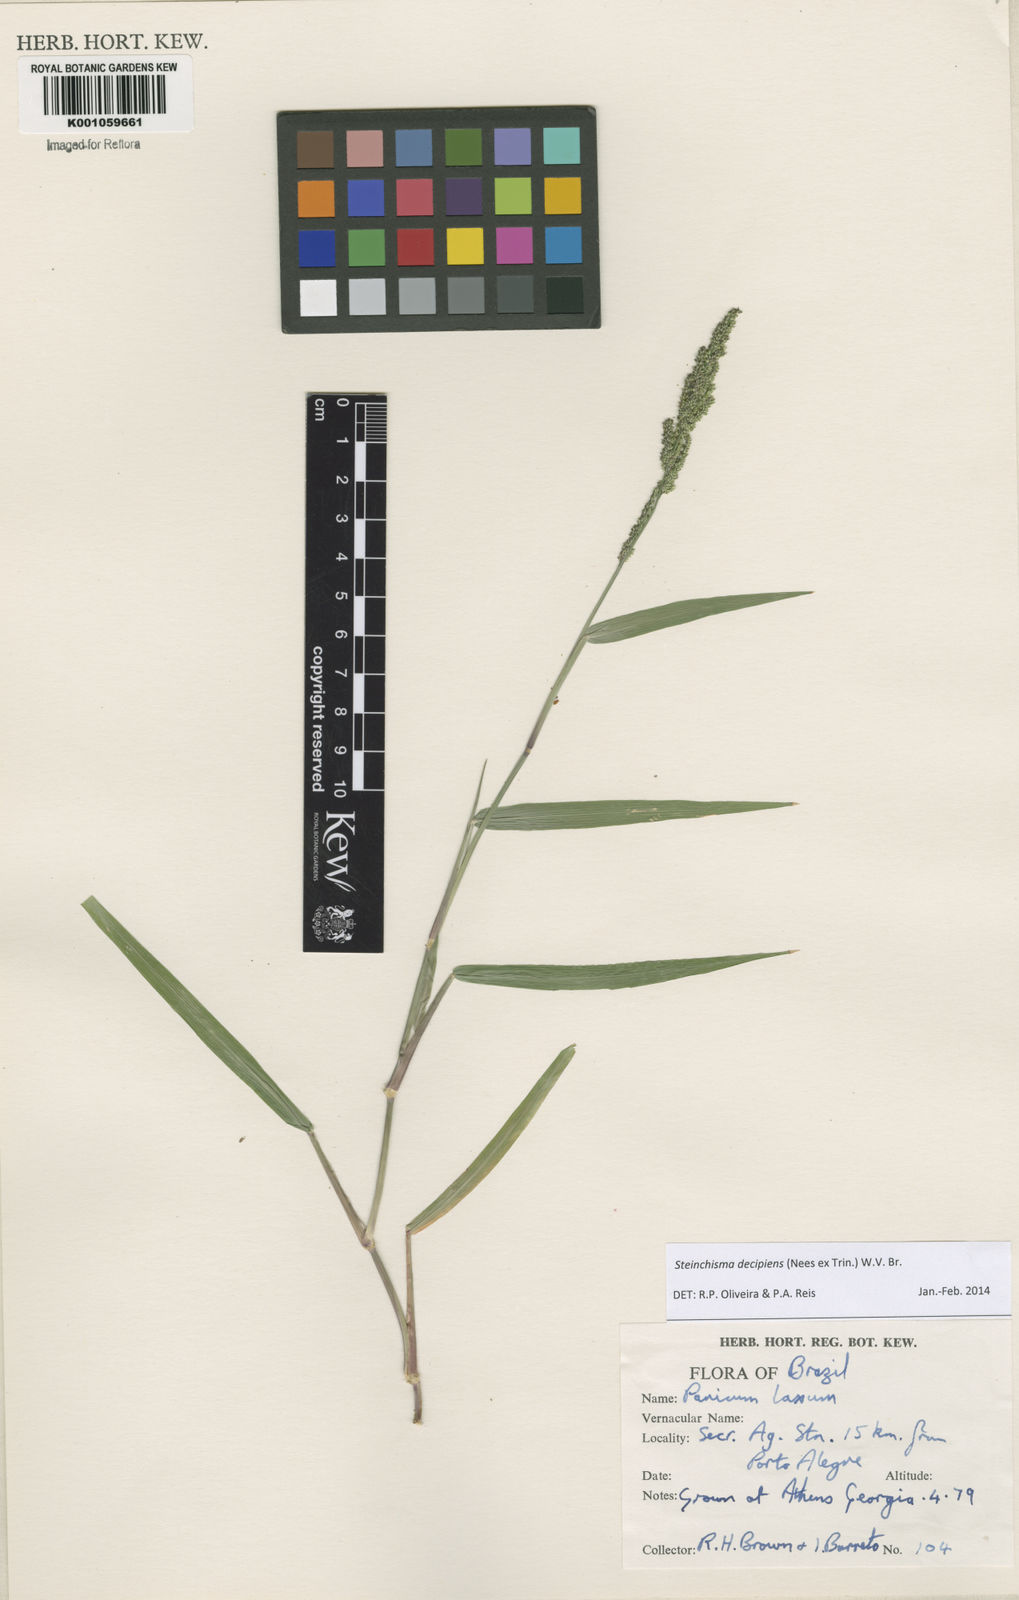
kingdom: Plantae
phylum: Tracheophyta
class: Liliopsida
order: Poales
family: Poaceae
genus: Steinchisma
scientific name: Steinchisma decipiens
